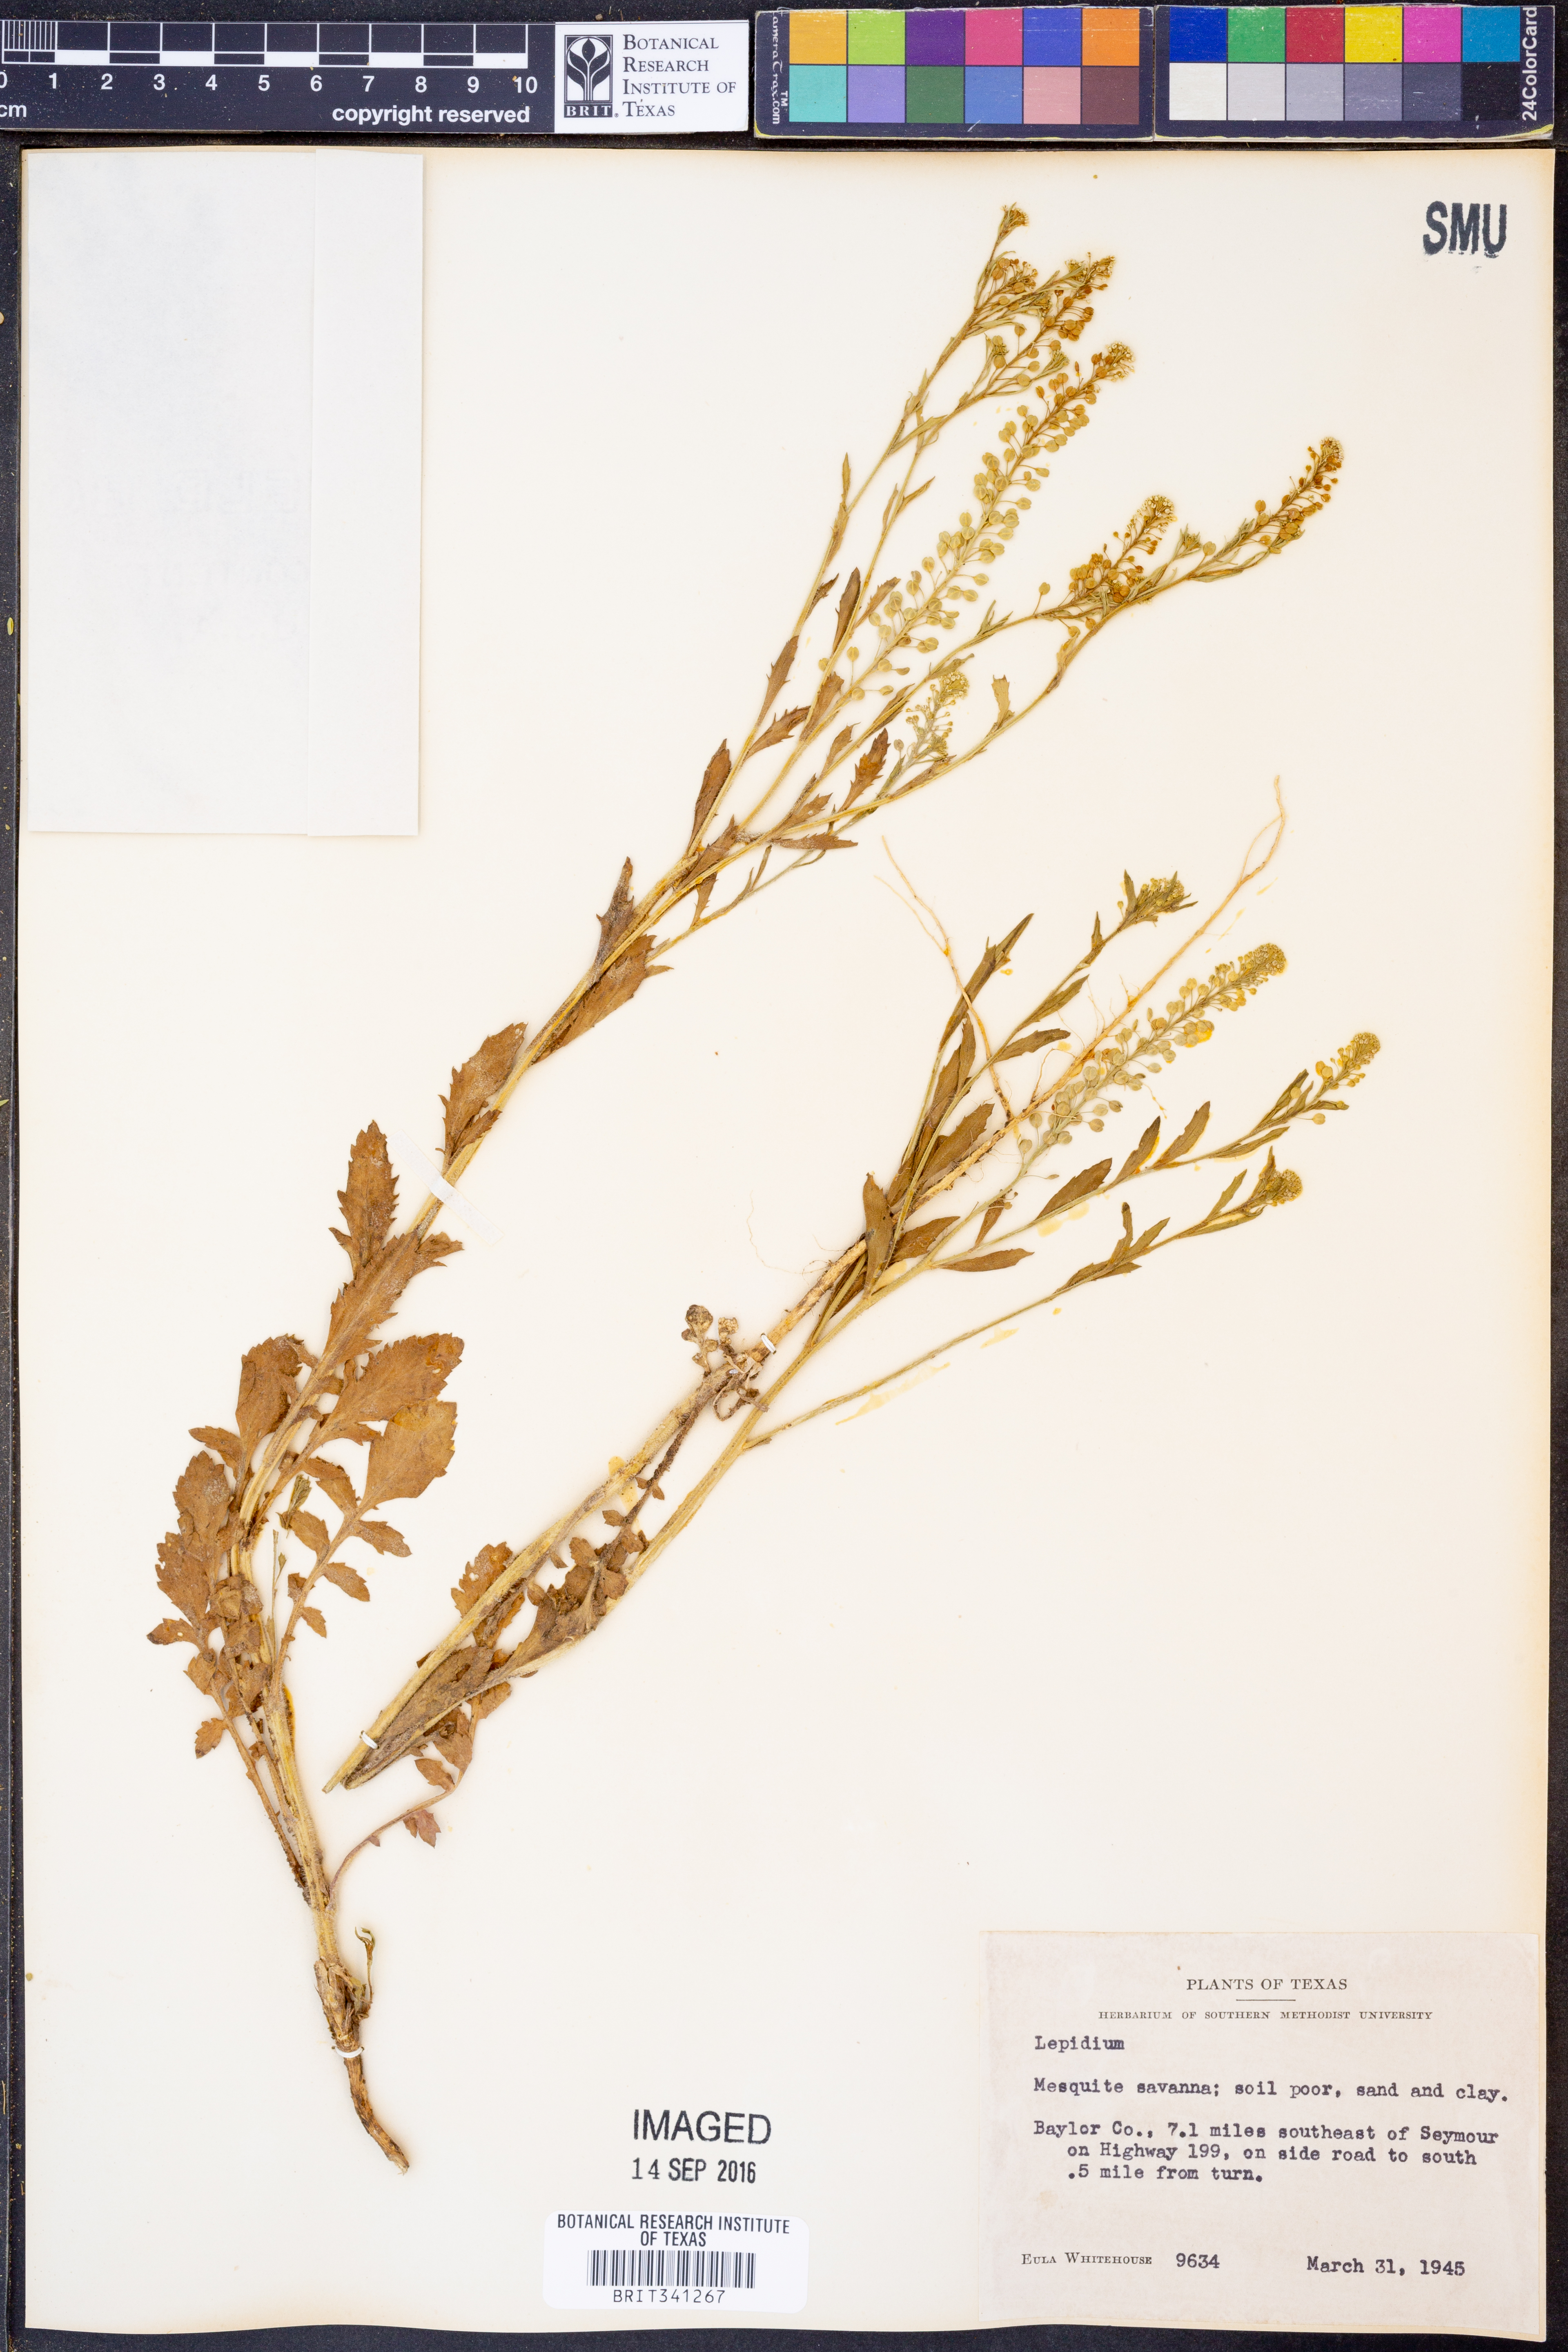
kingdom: Plantae
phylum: Tracheophyta
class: Magnoliopsida
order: Brassicales
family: Brassicaceae
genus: Lepidium
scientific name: Lepidium
